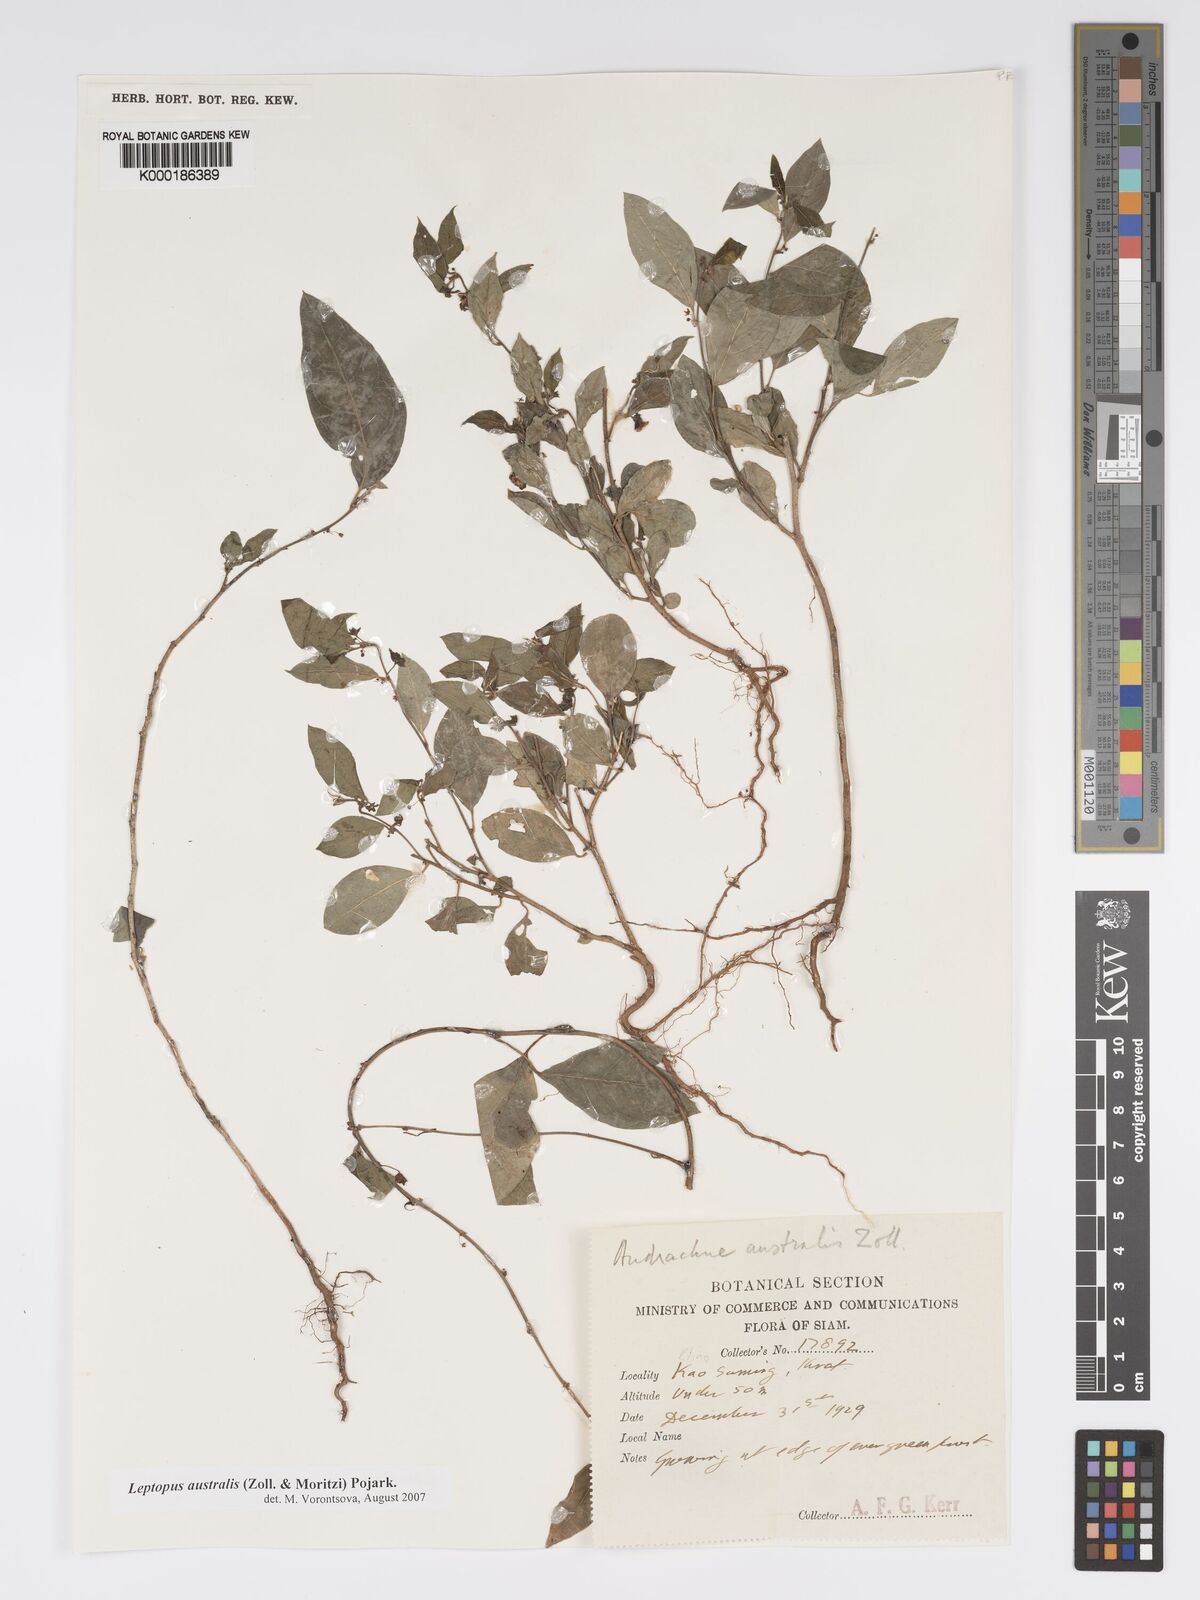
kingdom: Plantae
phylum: Tracheophyta
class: Magnoliopsida
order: Malpighiales
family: Phyllanthaceae
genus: Andrachne
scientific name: Andrachne
